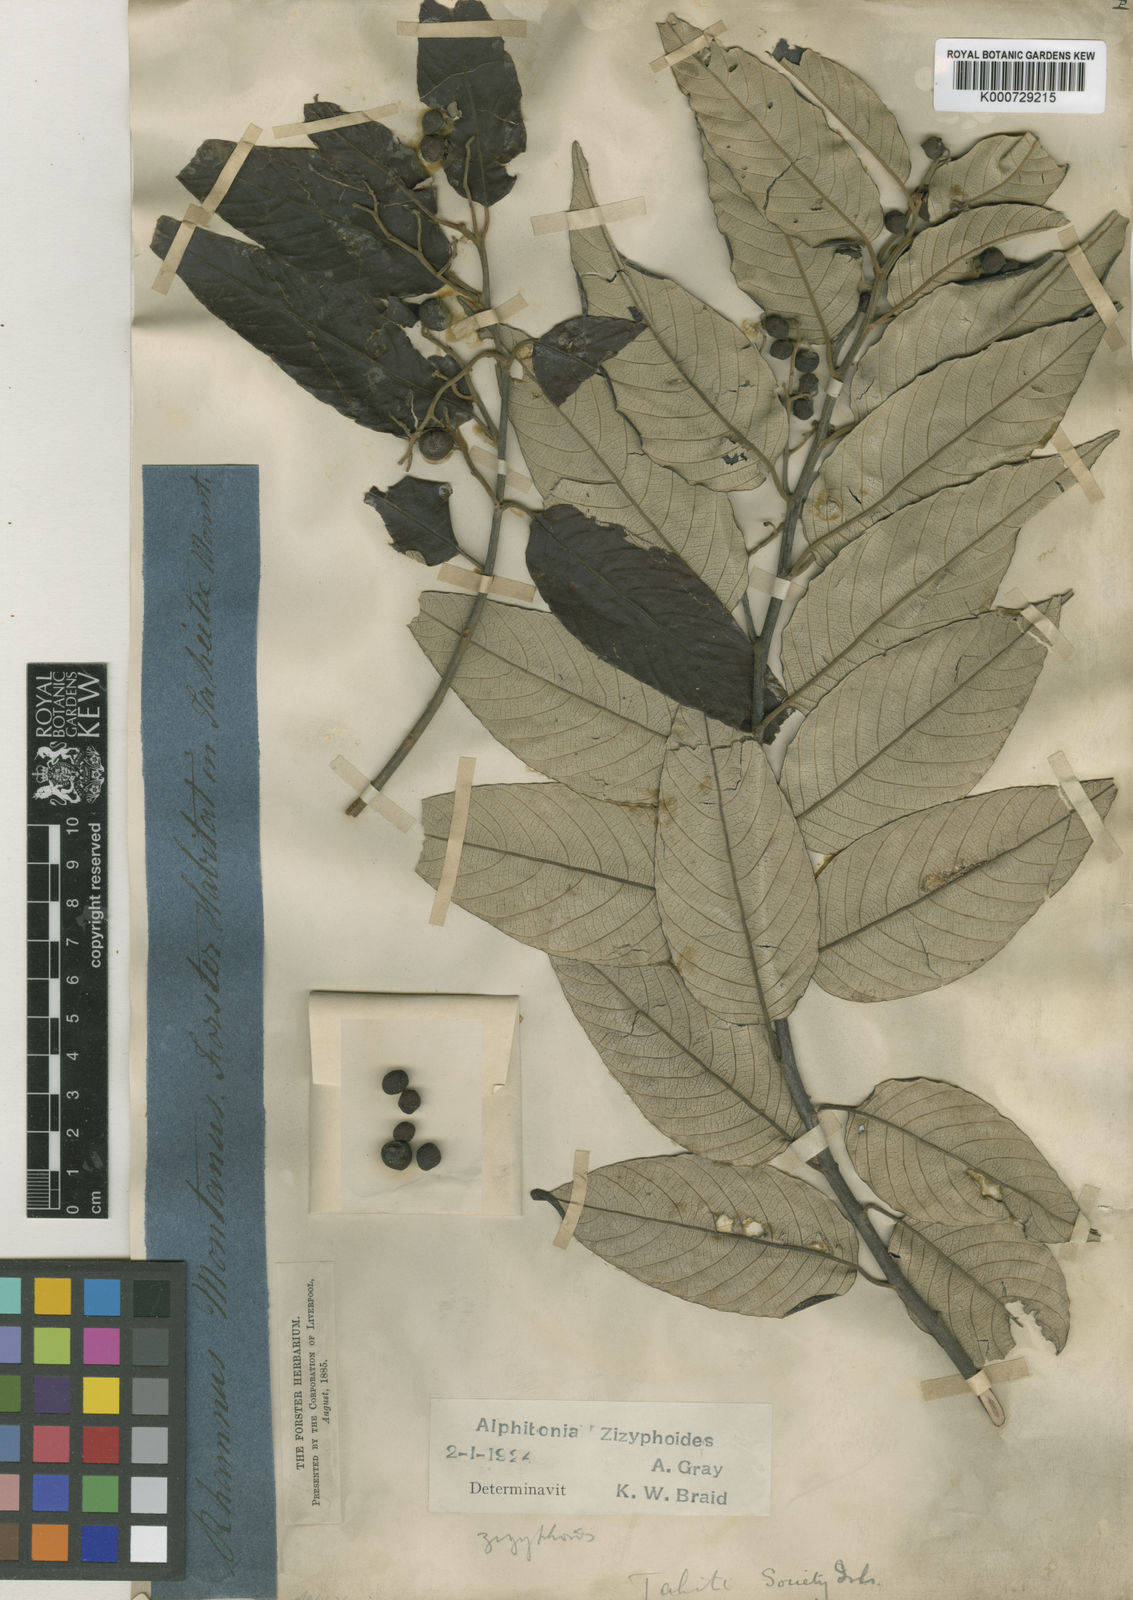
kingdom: Plantae
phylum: Tracheophyta
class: Magnoliopsida
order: Rosales
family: Rhamnaceae
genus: Alphitonia
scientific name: Alphitonia zizyphoides
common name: Toi
